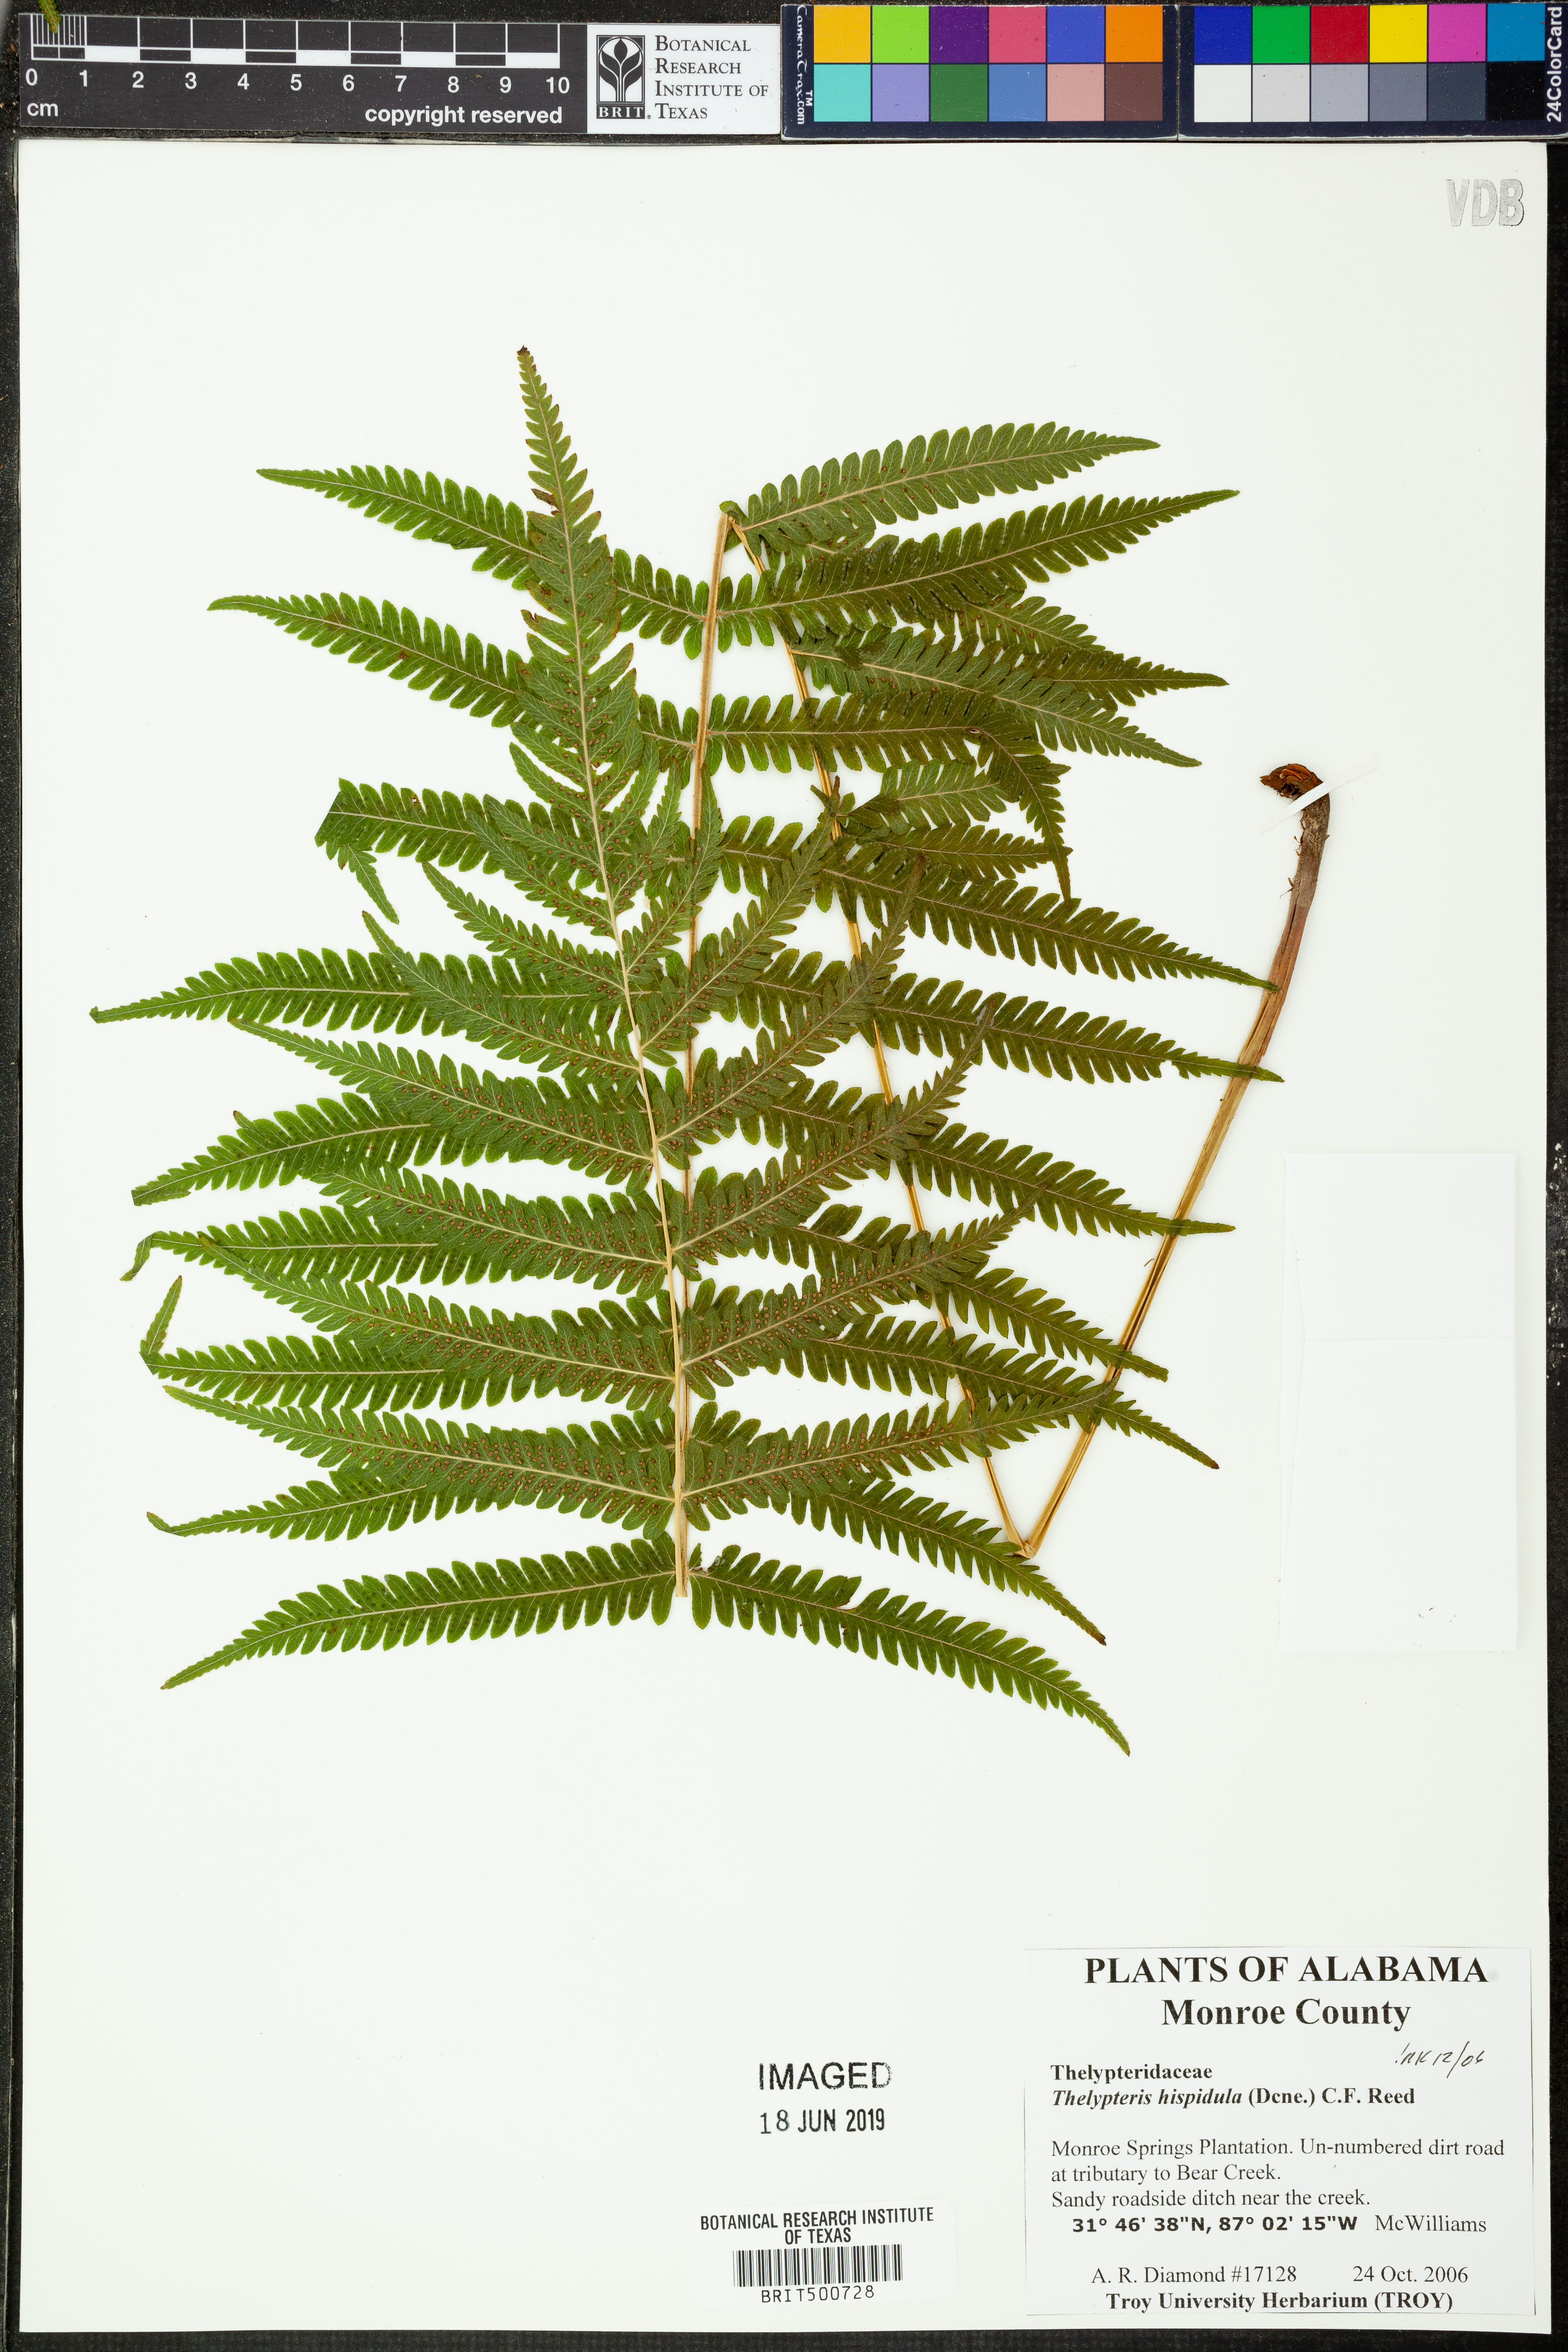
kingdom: Plantae
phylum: Tracheophyta
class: Polypodiopsida
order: Polypodiales
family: Thelypteridaceae
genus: Christella
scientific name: Christella hispidula
